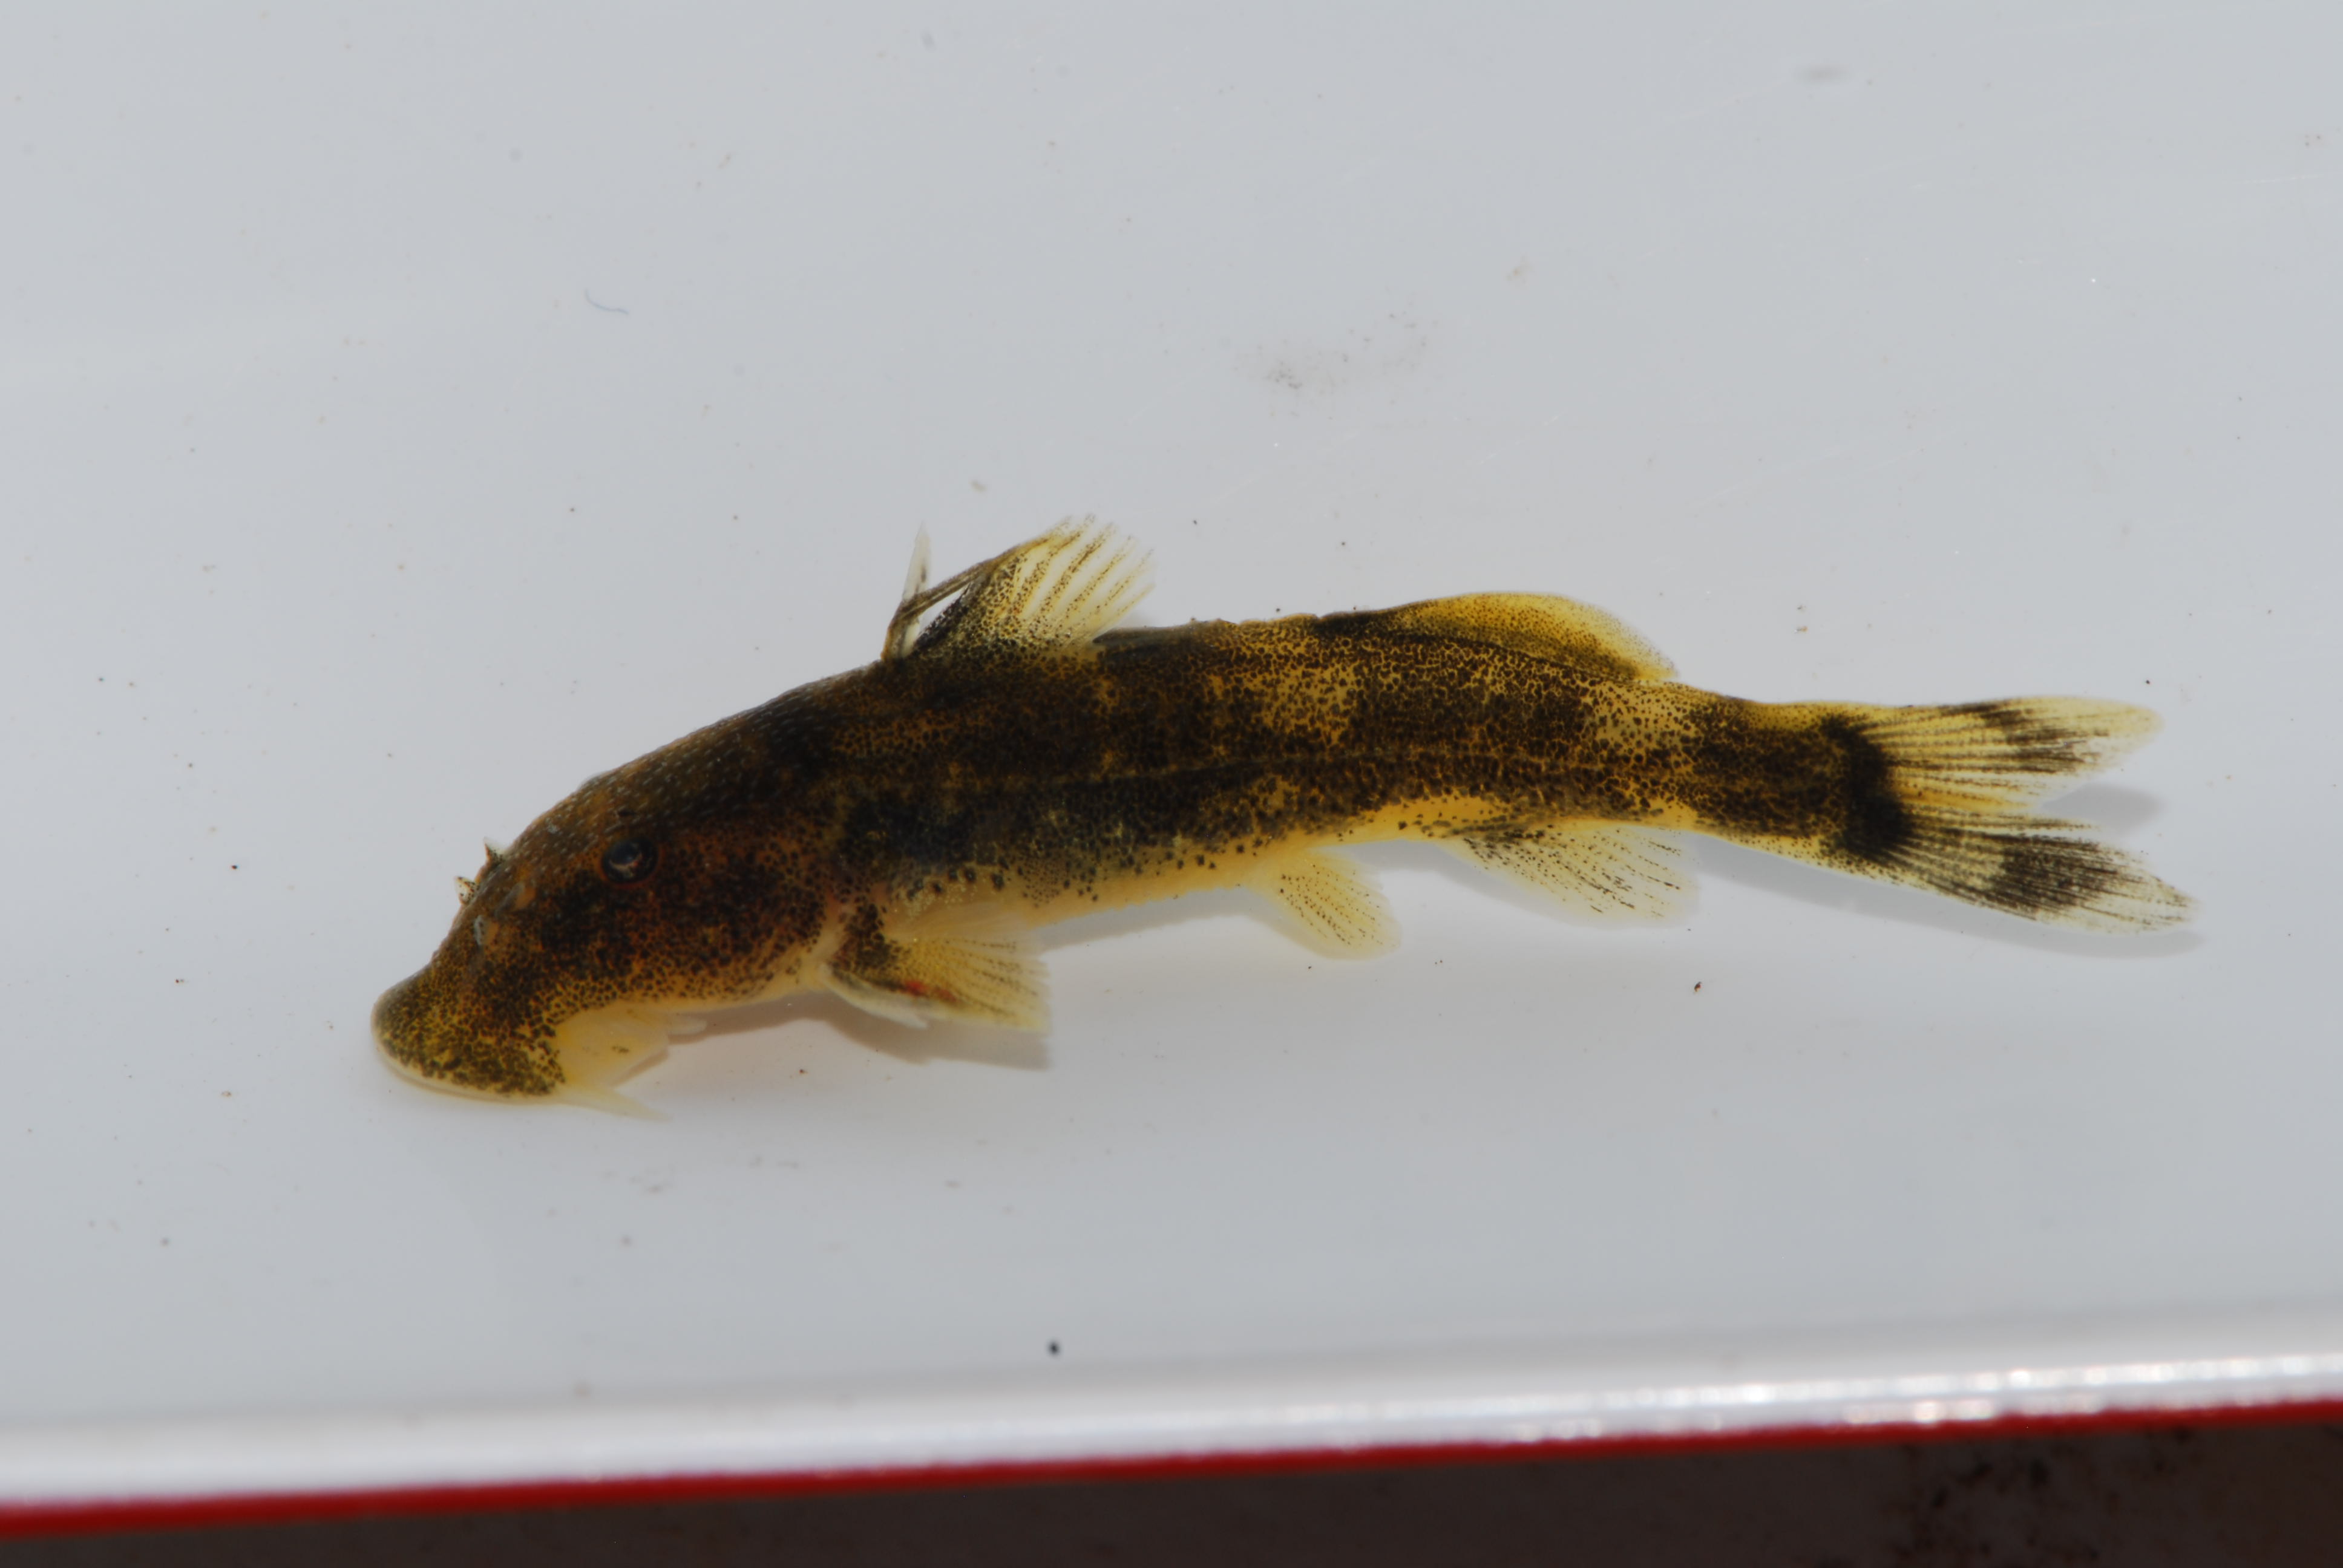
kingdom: Animalia
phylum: Chordata
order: Siluriformes
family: Mochokidae
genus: Chiloglanis
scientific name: Chiloglanis
